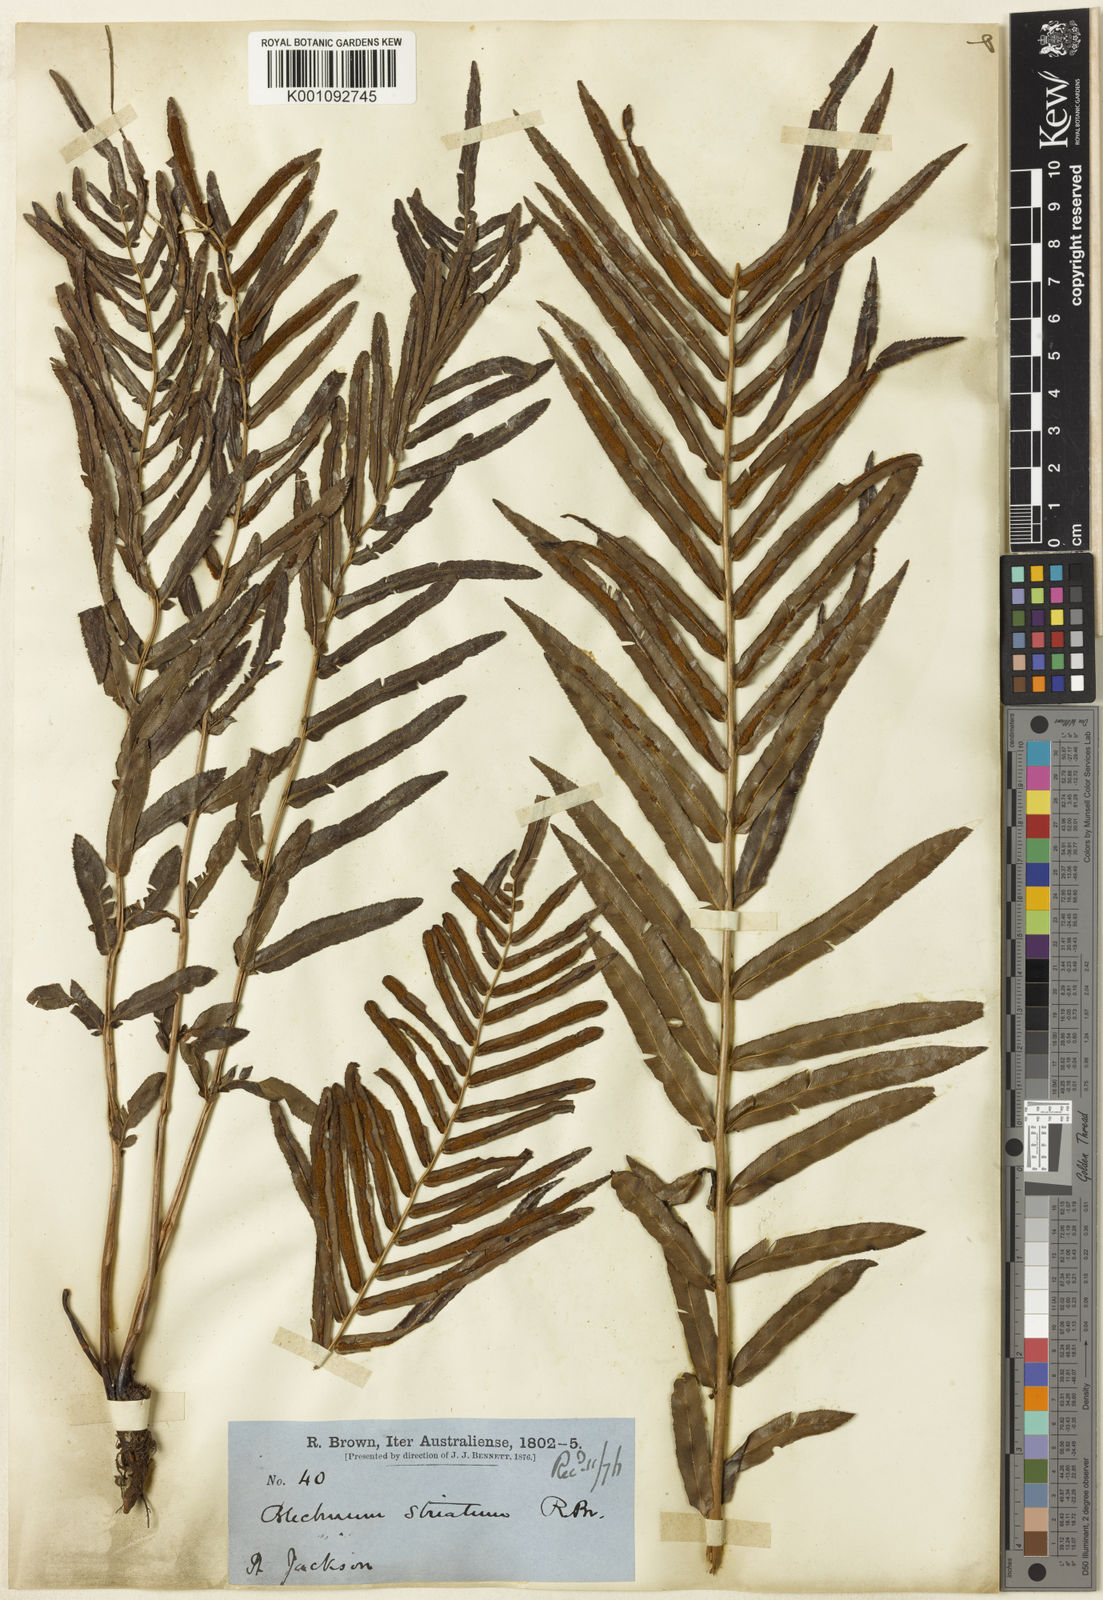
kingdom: Plantae
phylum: Tracheophyta
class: Polypodiopsida
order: Polypodiales
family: Blechnaceae
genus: Telmatoblechnum
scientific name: Telmatoblechnum serrulatum
